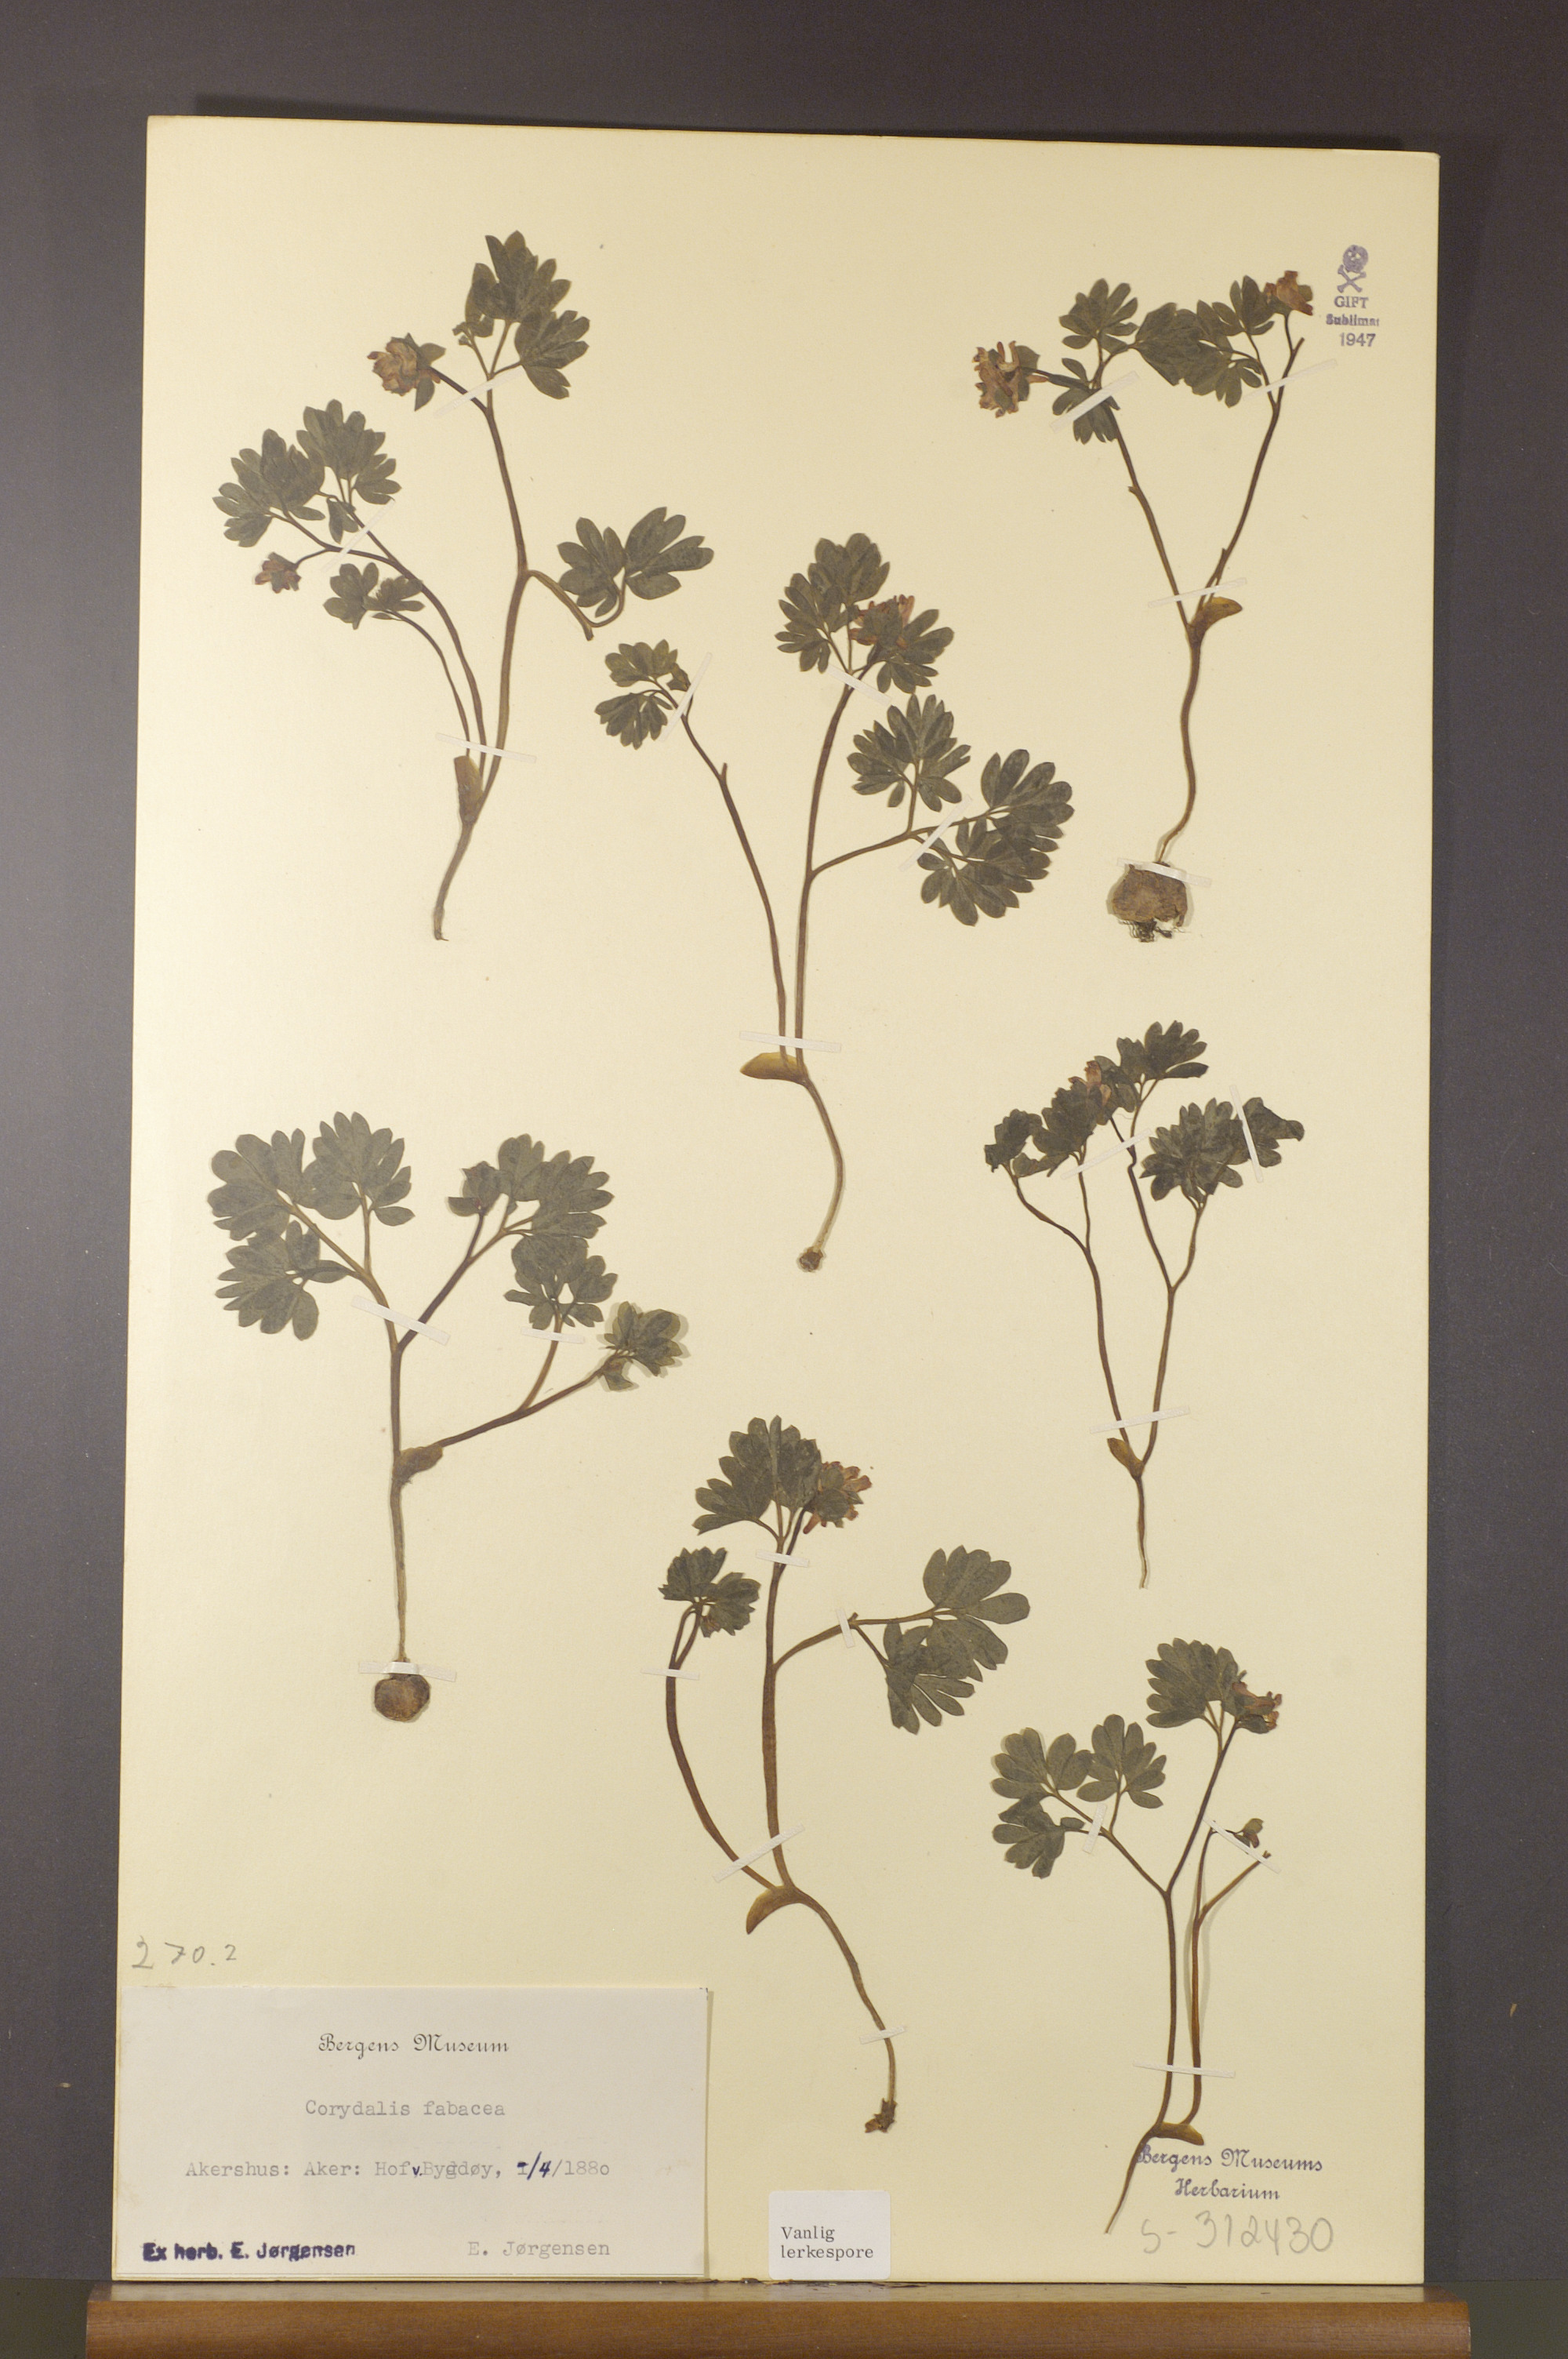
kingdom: Plantae
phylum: Tracheophyta
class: Magnoliopsida
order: Ranunculales
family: Papaveraceae
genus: Corydalis
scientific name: Corydalis intermedia
